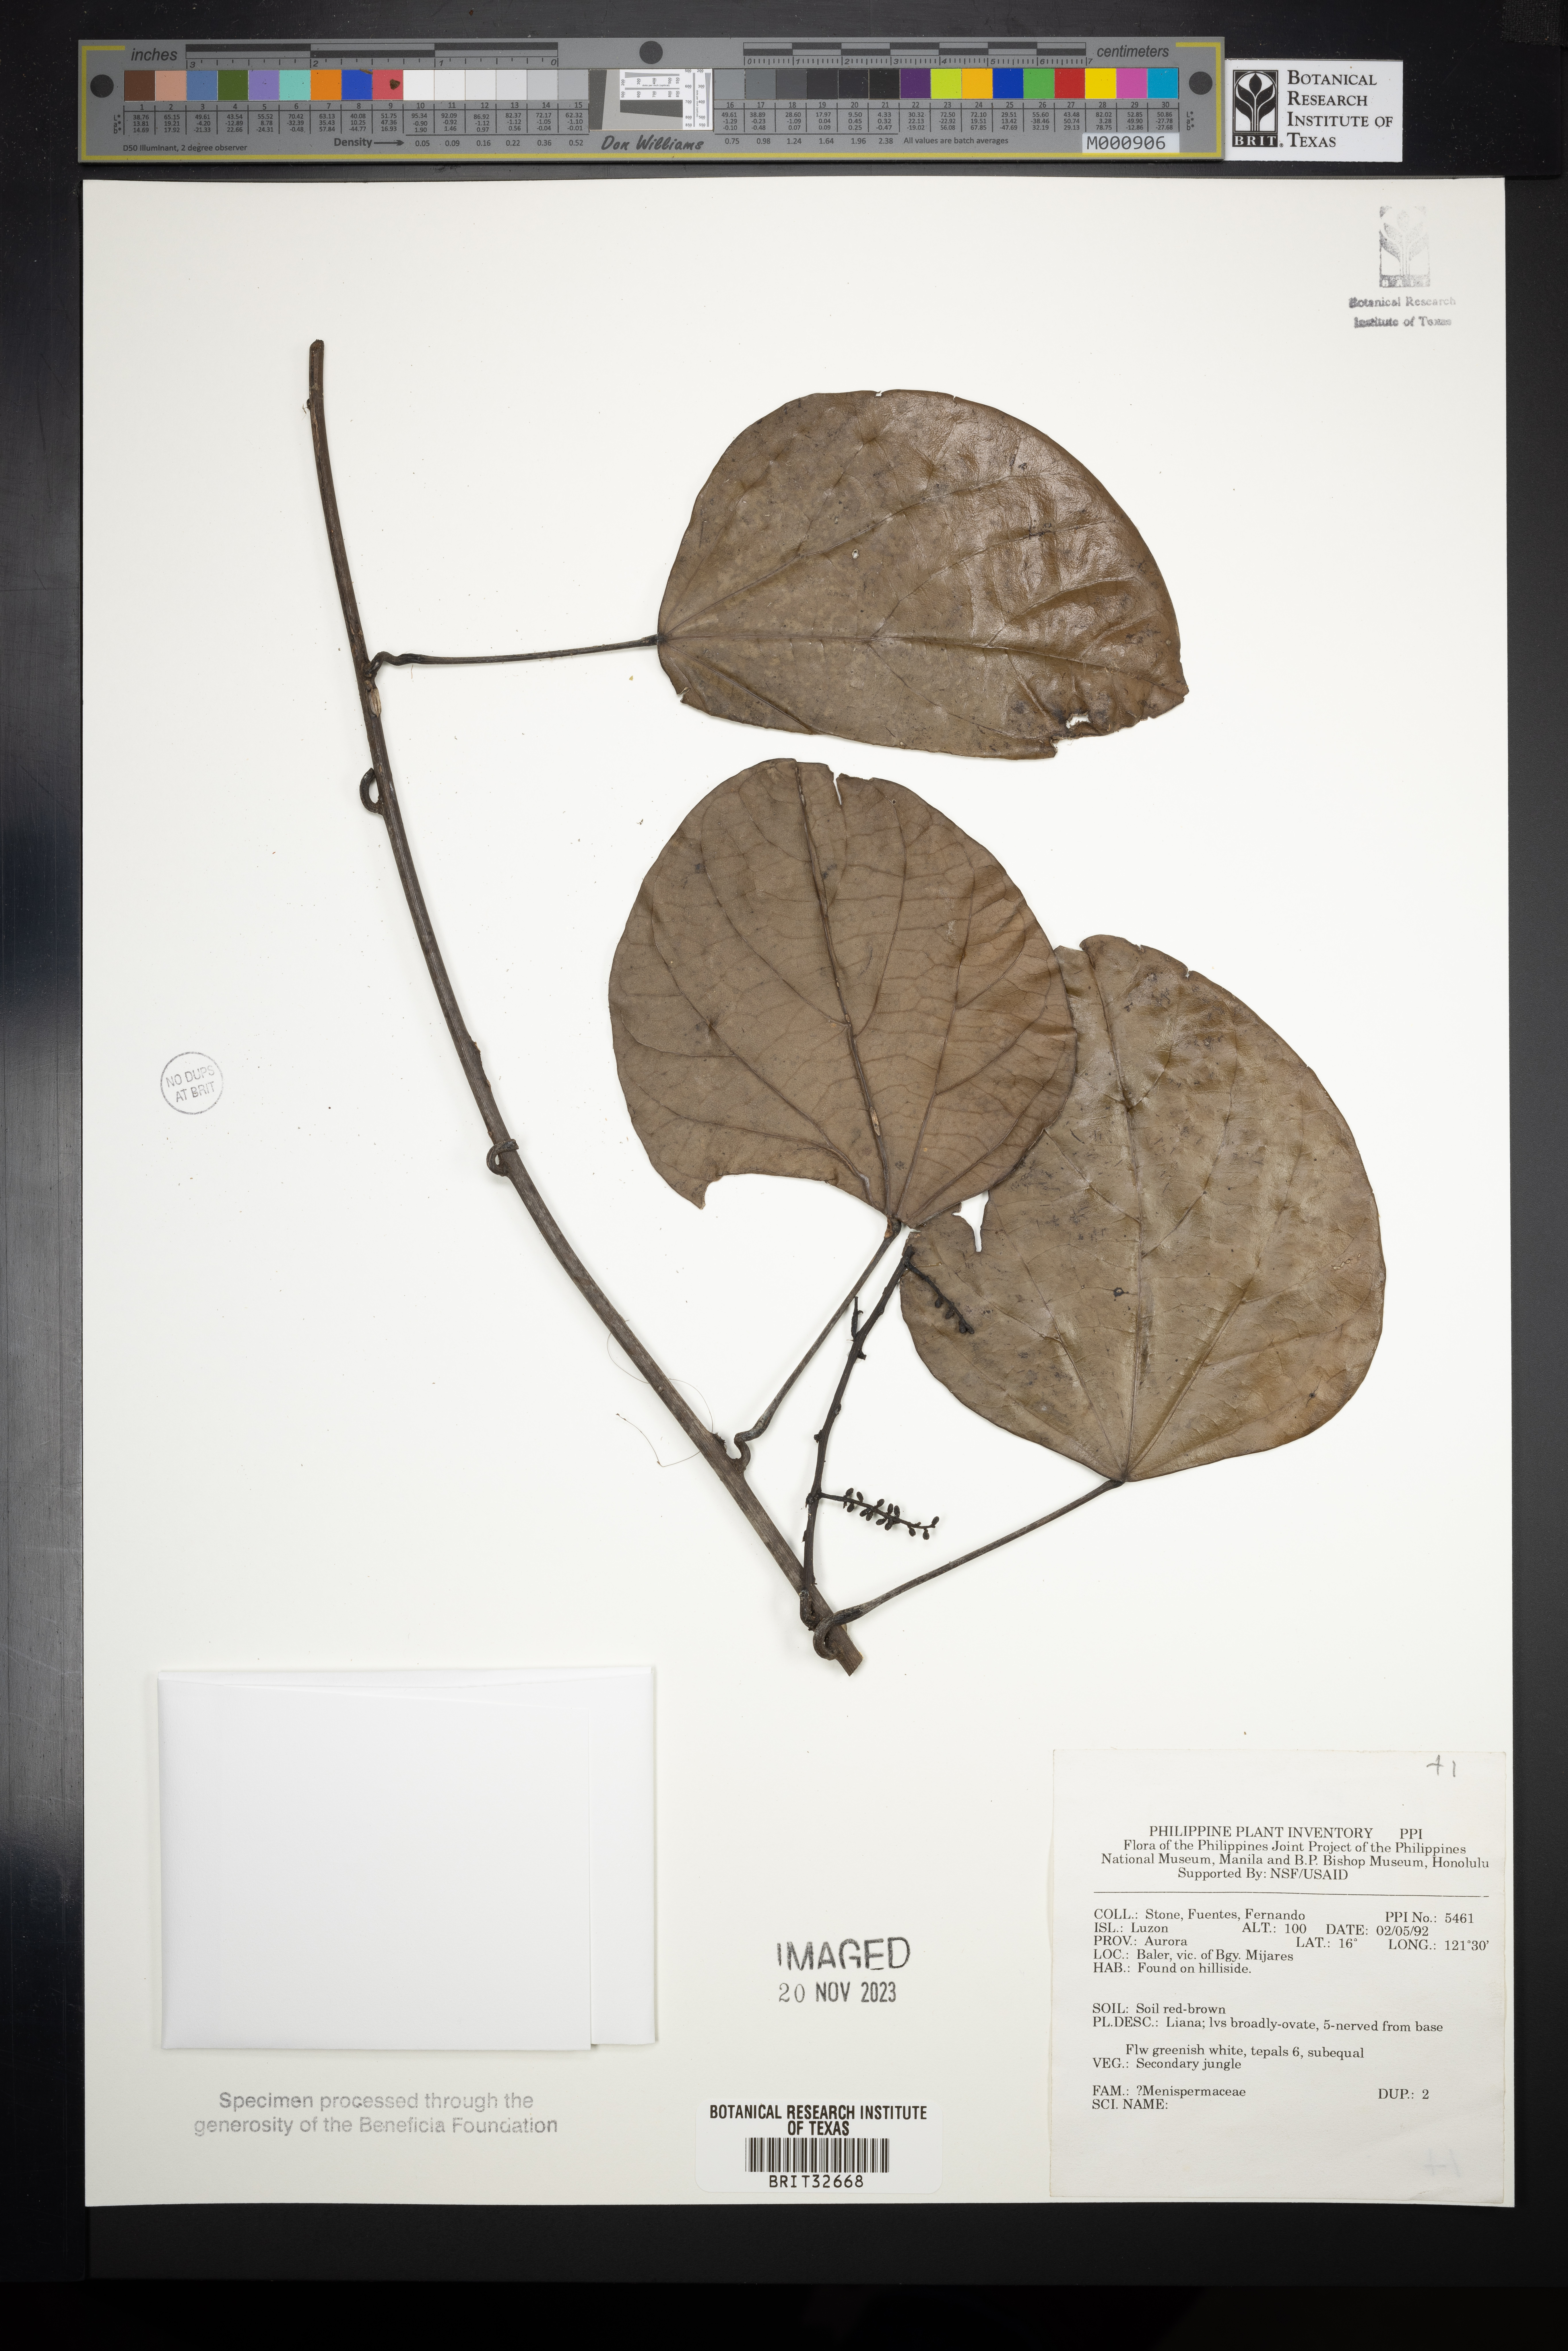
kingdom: Plantae
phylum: Tracheophyta
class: Magnoliopsida
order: Ranunculales
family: Menispermaceae
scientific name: Menispermaceae
